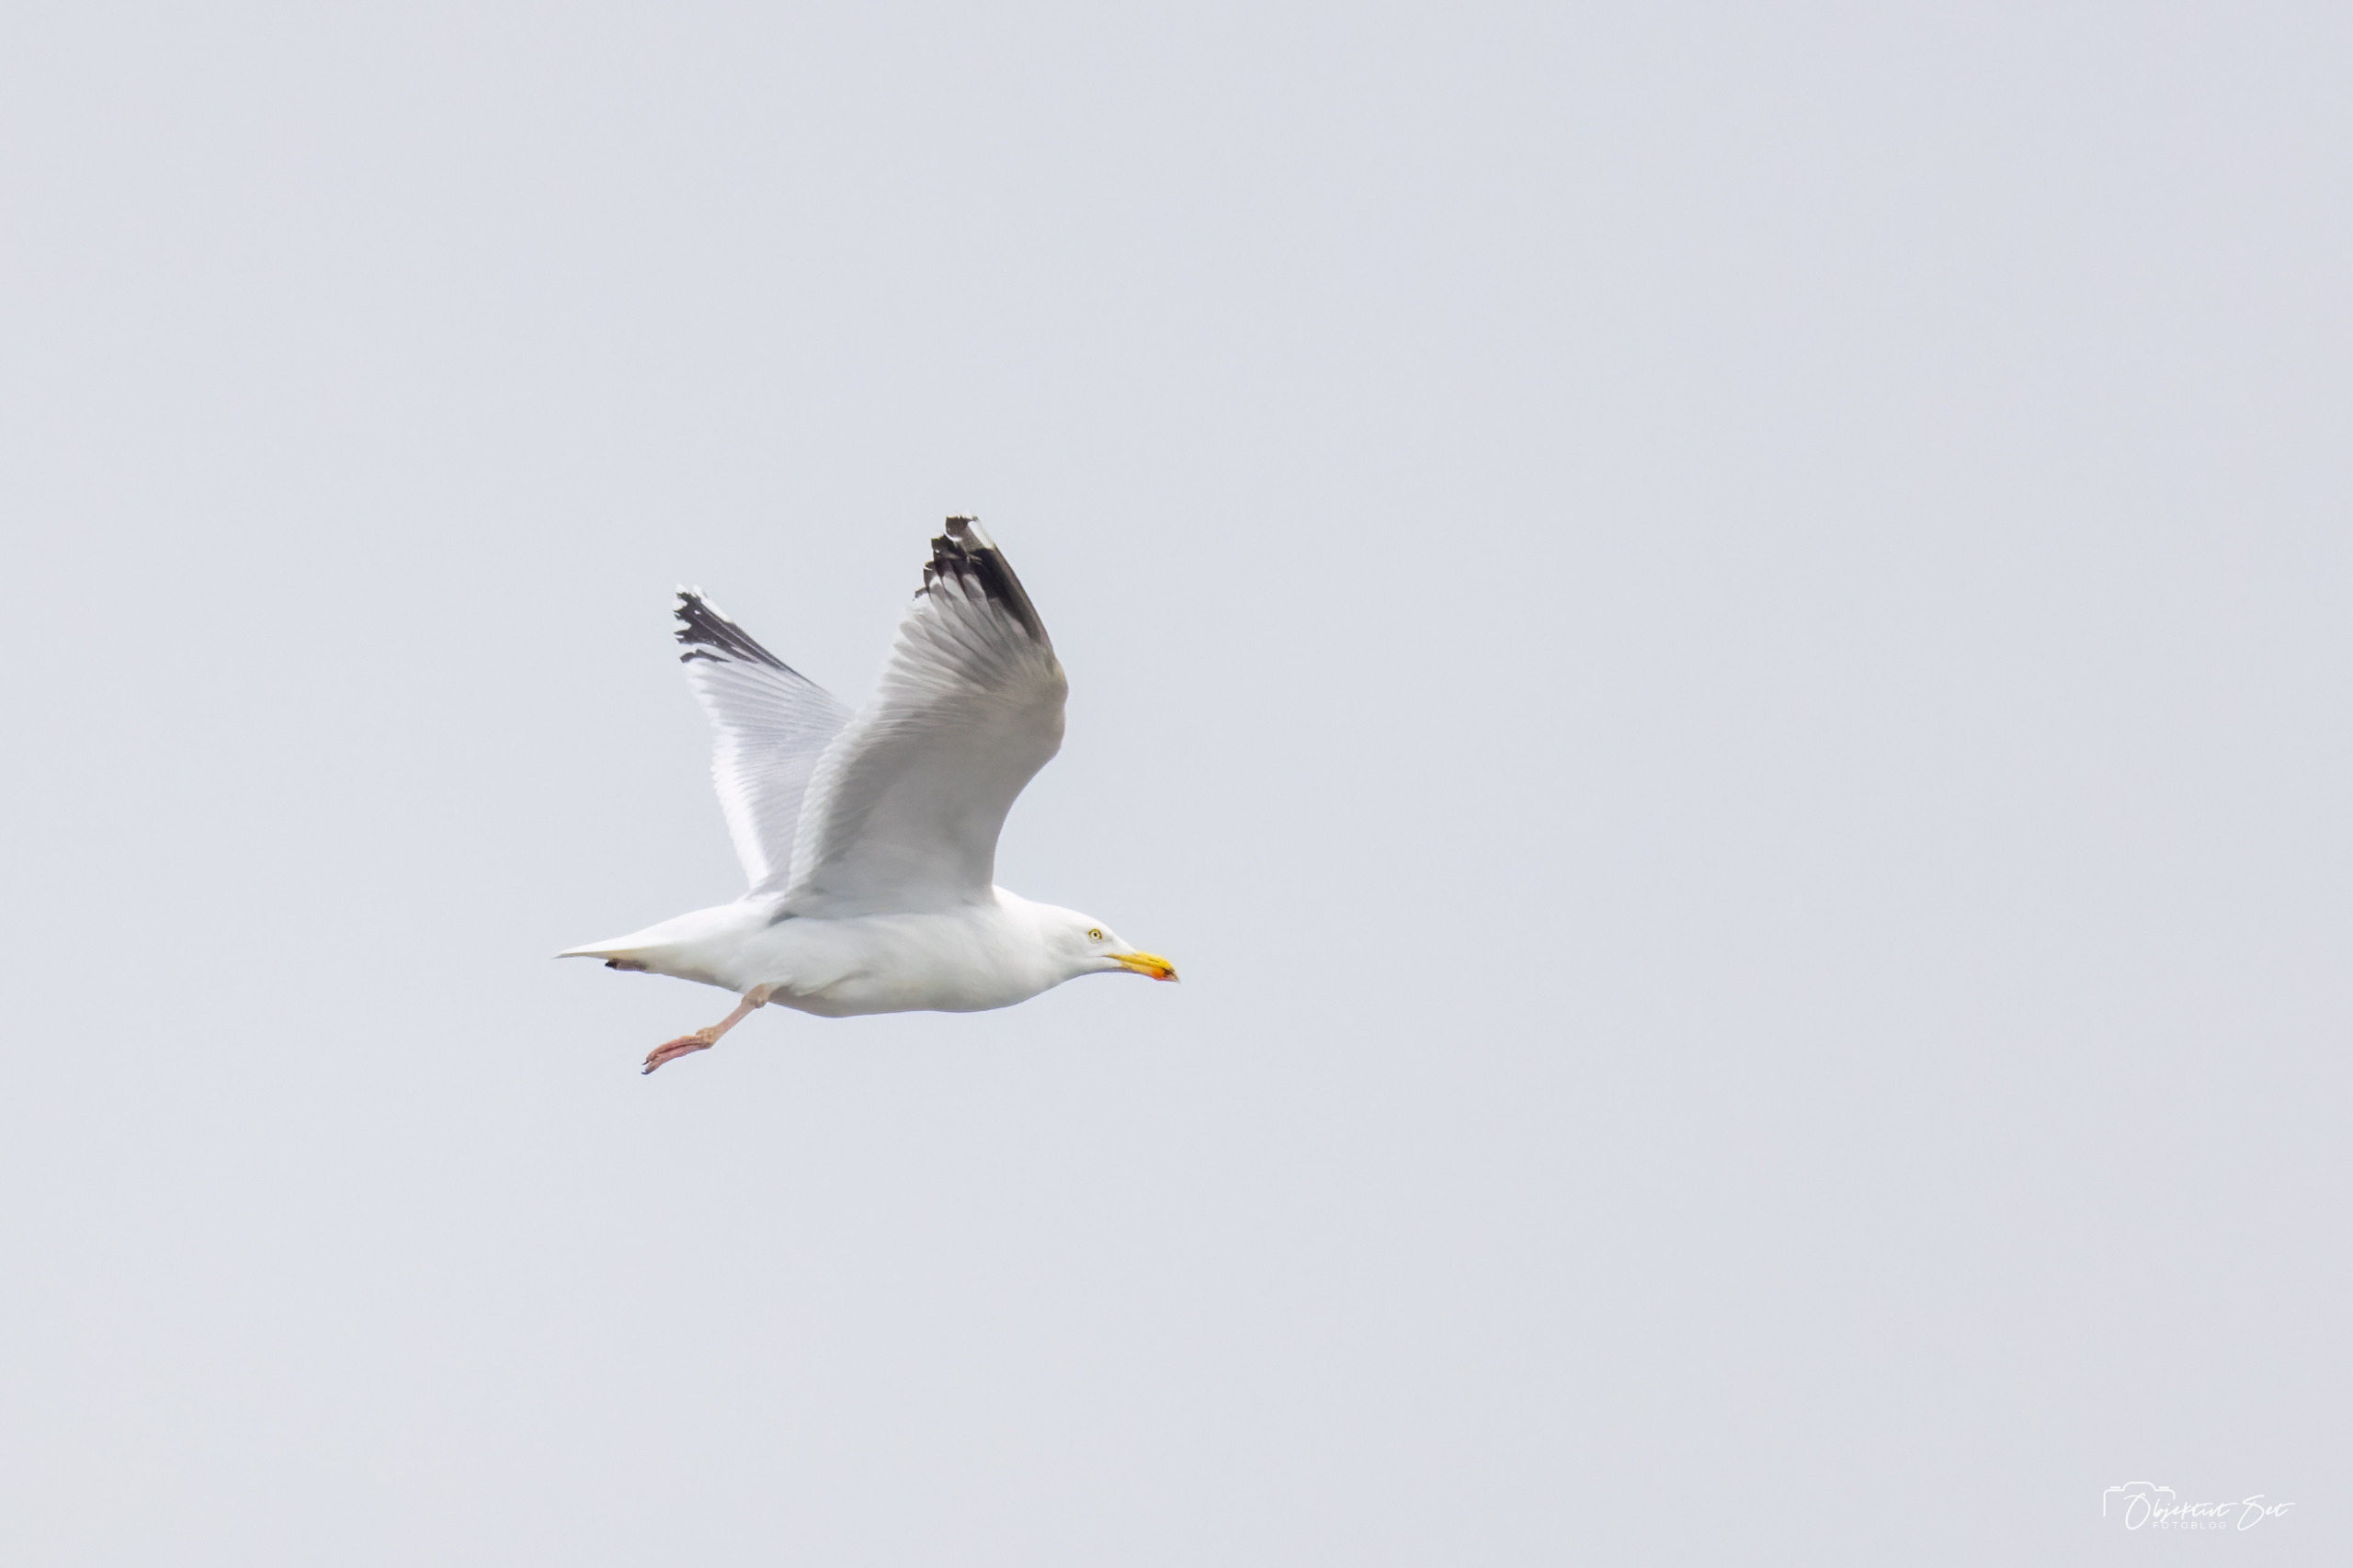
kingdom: Animalia
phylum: Chordata
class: Aves
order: Charadriiformes
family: Laridae
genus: Larus
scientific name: Larus argentatus
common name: Sølvmåge
